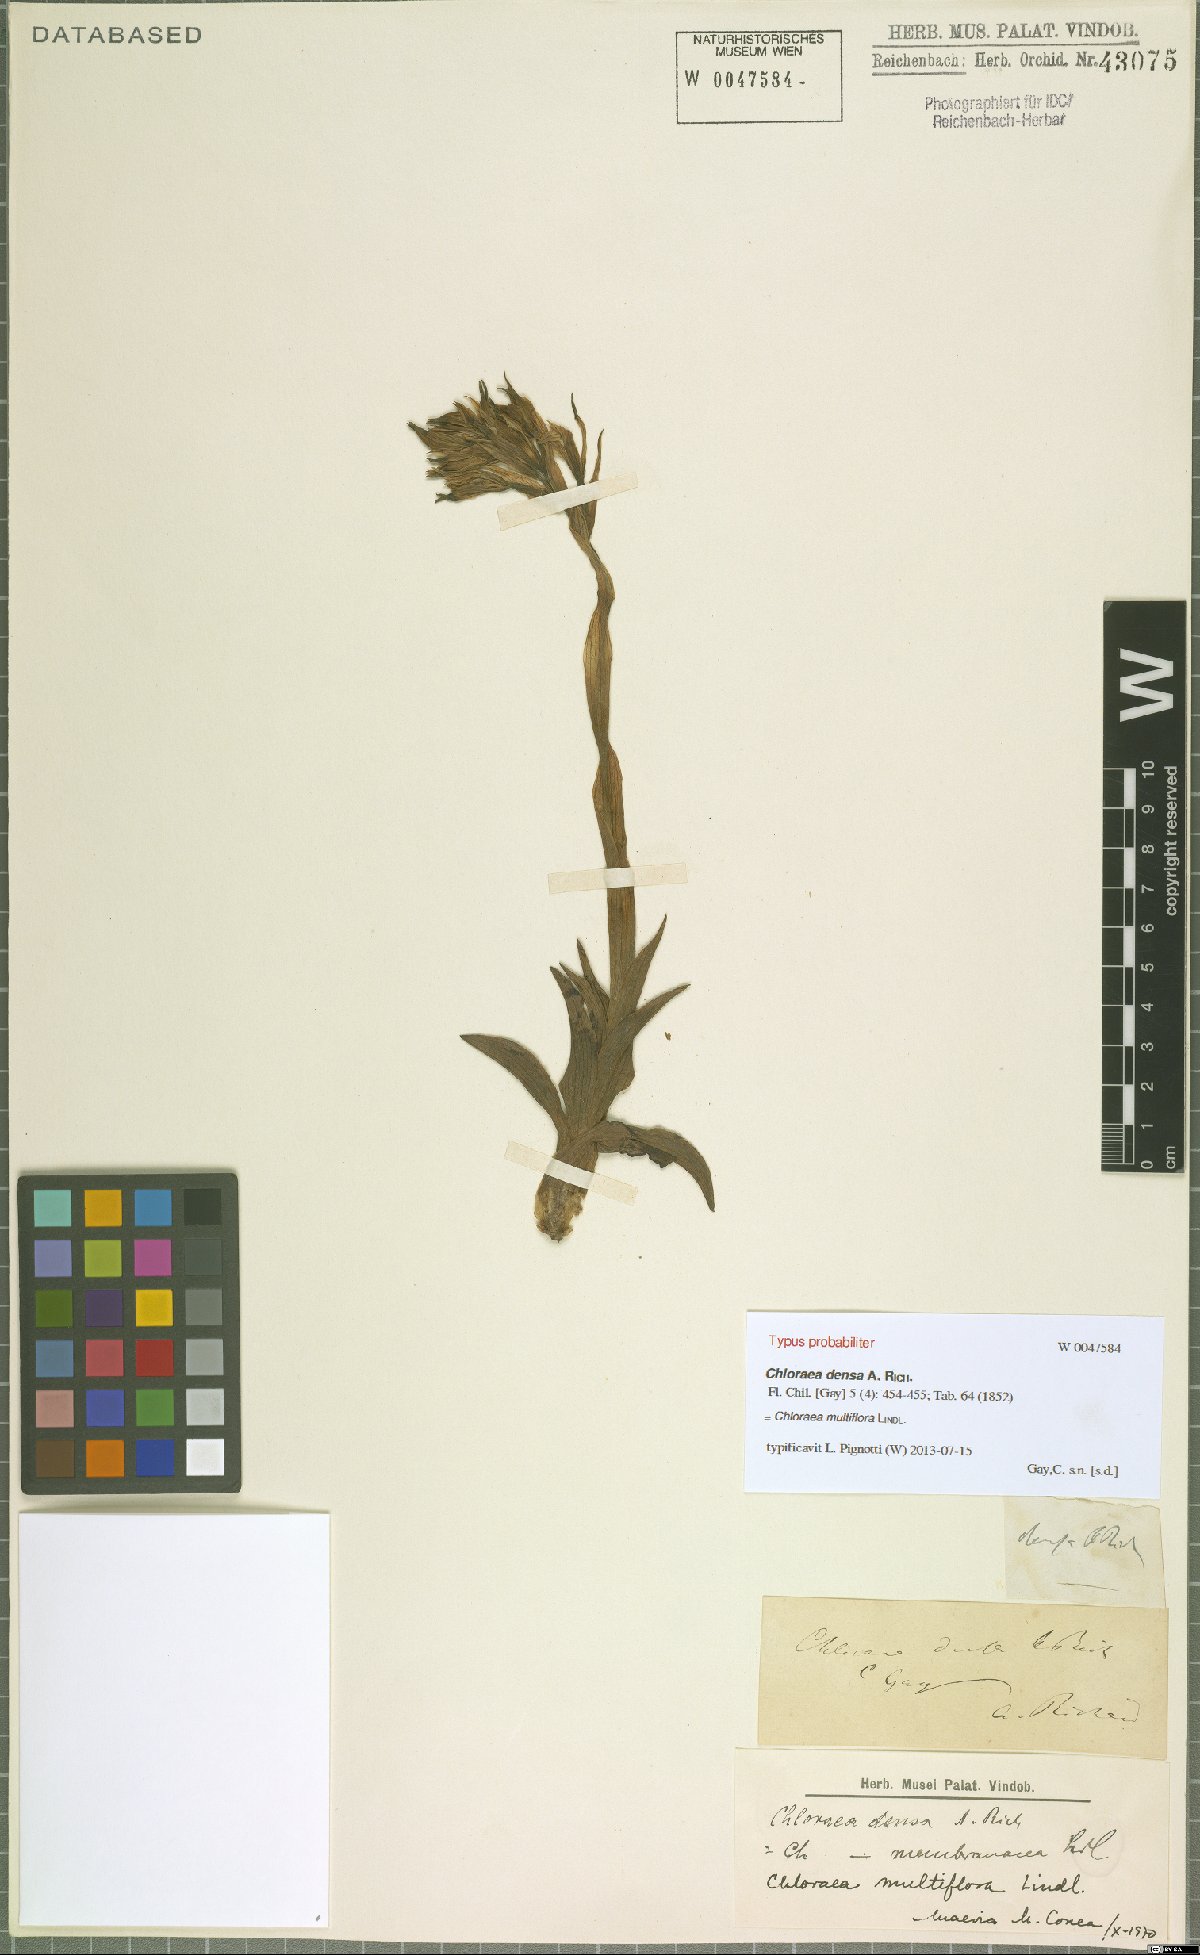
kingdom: Plantae
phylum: Tracheophyta
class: Liliopsida
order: Asparagales
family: Orchidaceae
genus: Chloraea
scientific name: Chloraea multiflora
